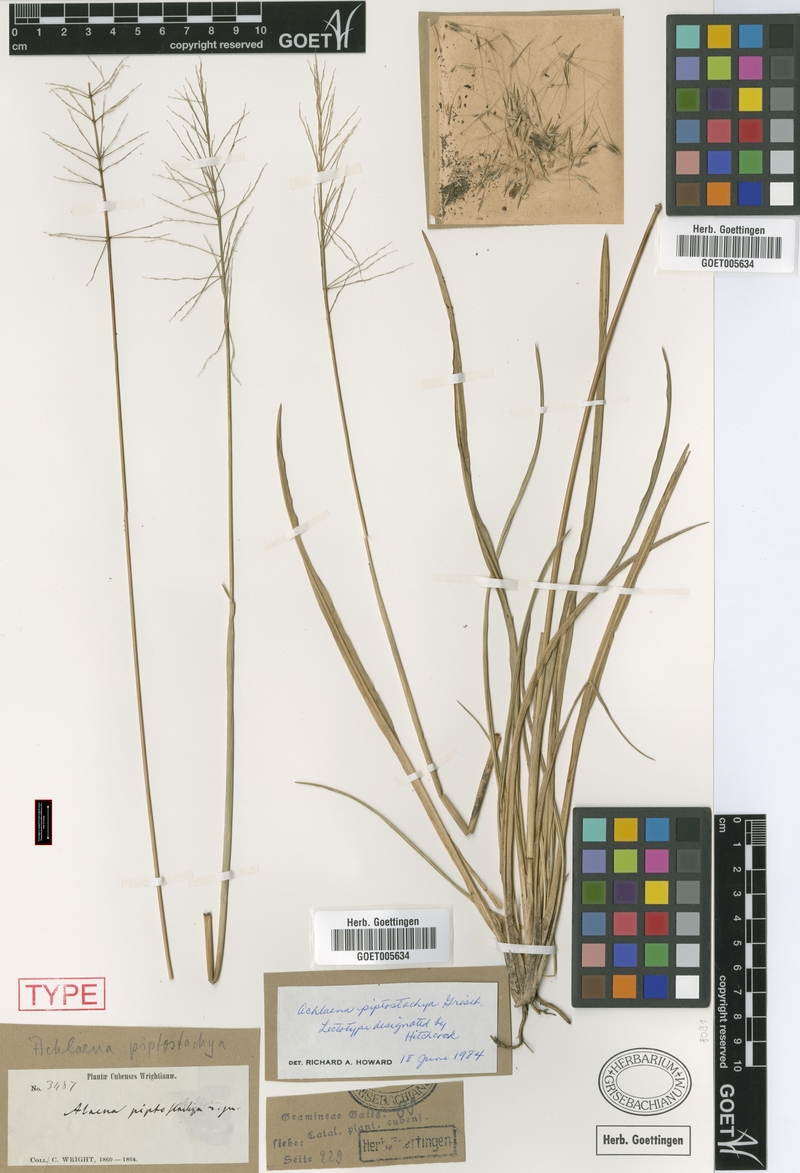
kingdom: Plantae
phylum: Tracheophyta
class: Liliopsida
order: Poales
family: Poaceae
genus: Arthropogon
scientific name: Arthropogon piptostachyus
